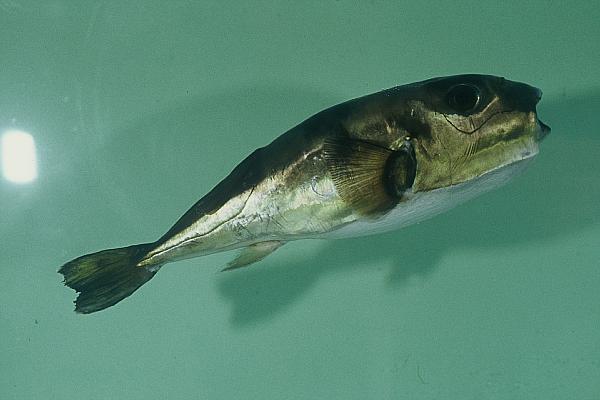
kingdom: Animalia
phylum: Chordata
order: Tetraodontiformes
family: Tetraodontidae
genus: Lagocephalus
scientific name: Lagocephalus guentheri
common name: Diamondback puffer
